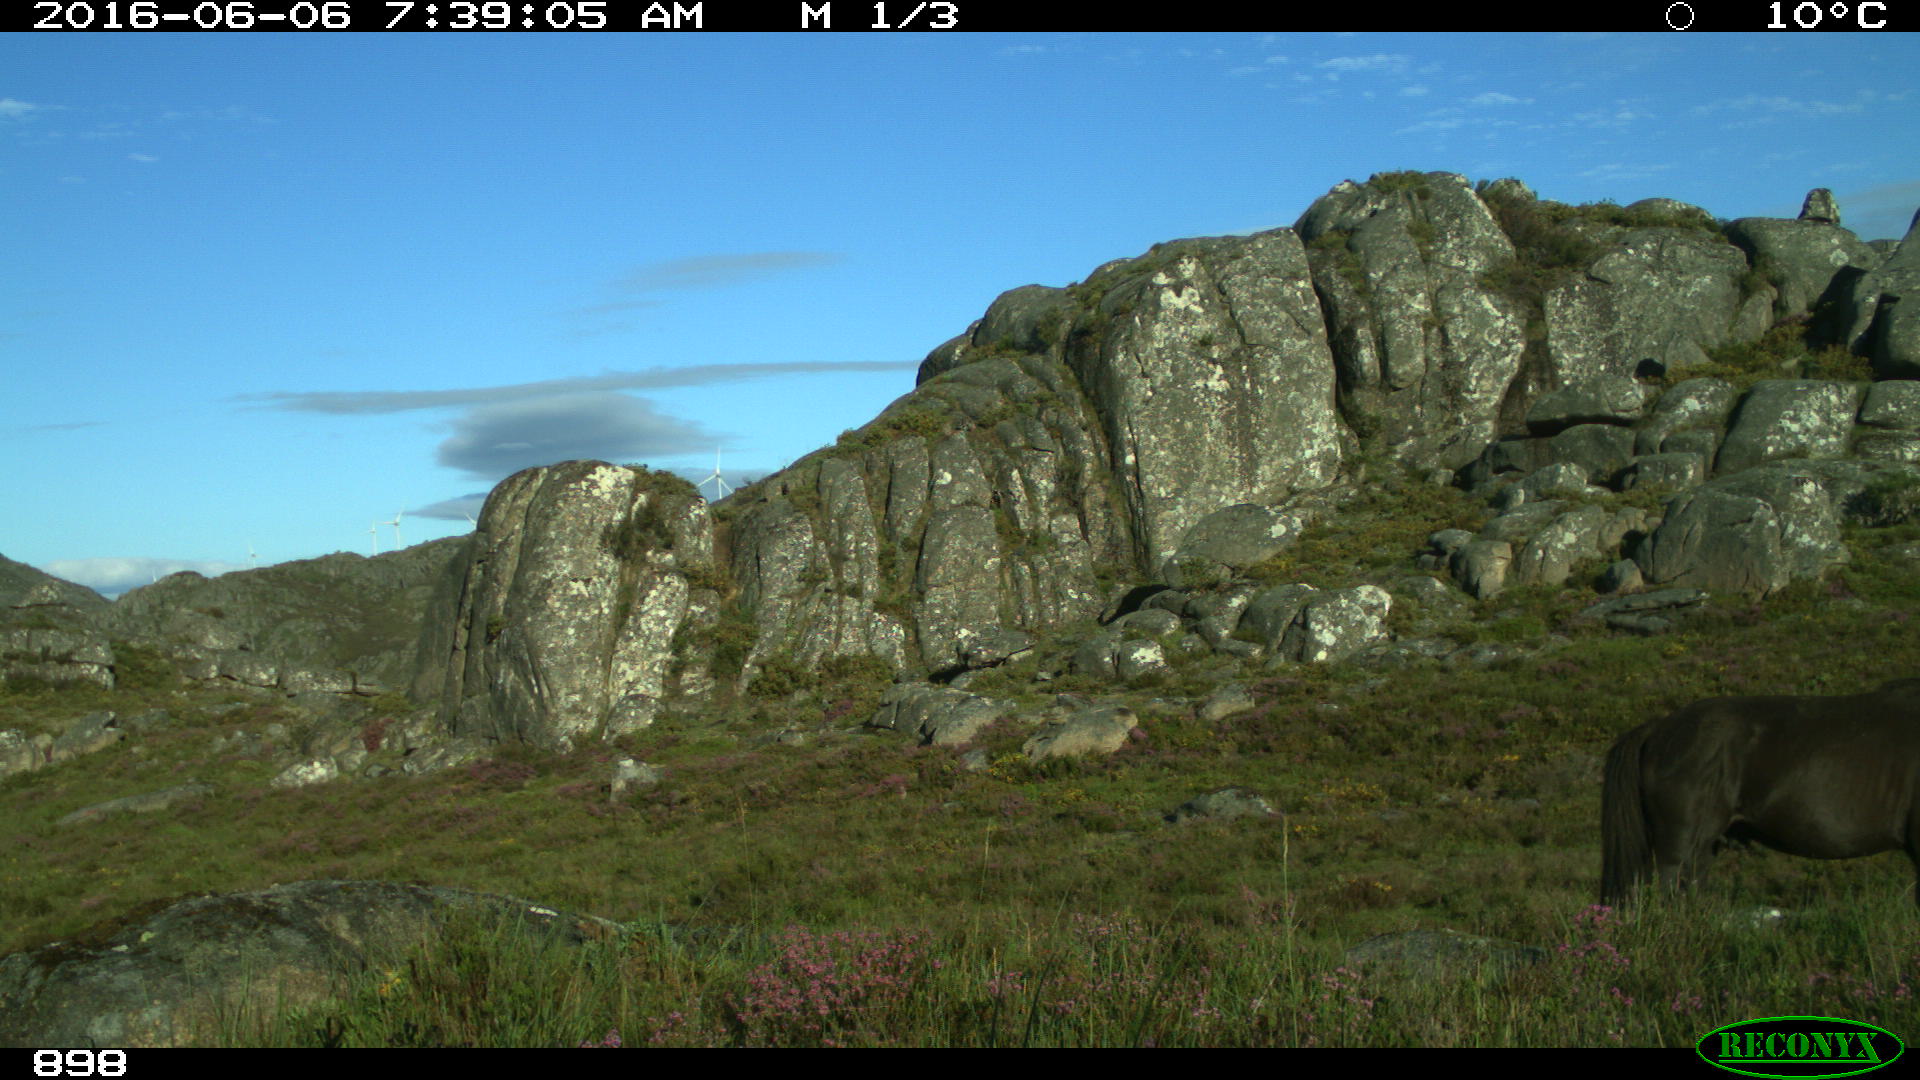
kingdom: Animalia
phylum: Chordata
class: Mammalia
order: Perissodactyla
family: Equidae
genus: Equus
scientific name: Equus caballus
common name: Horse
